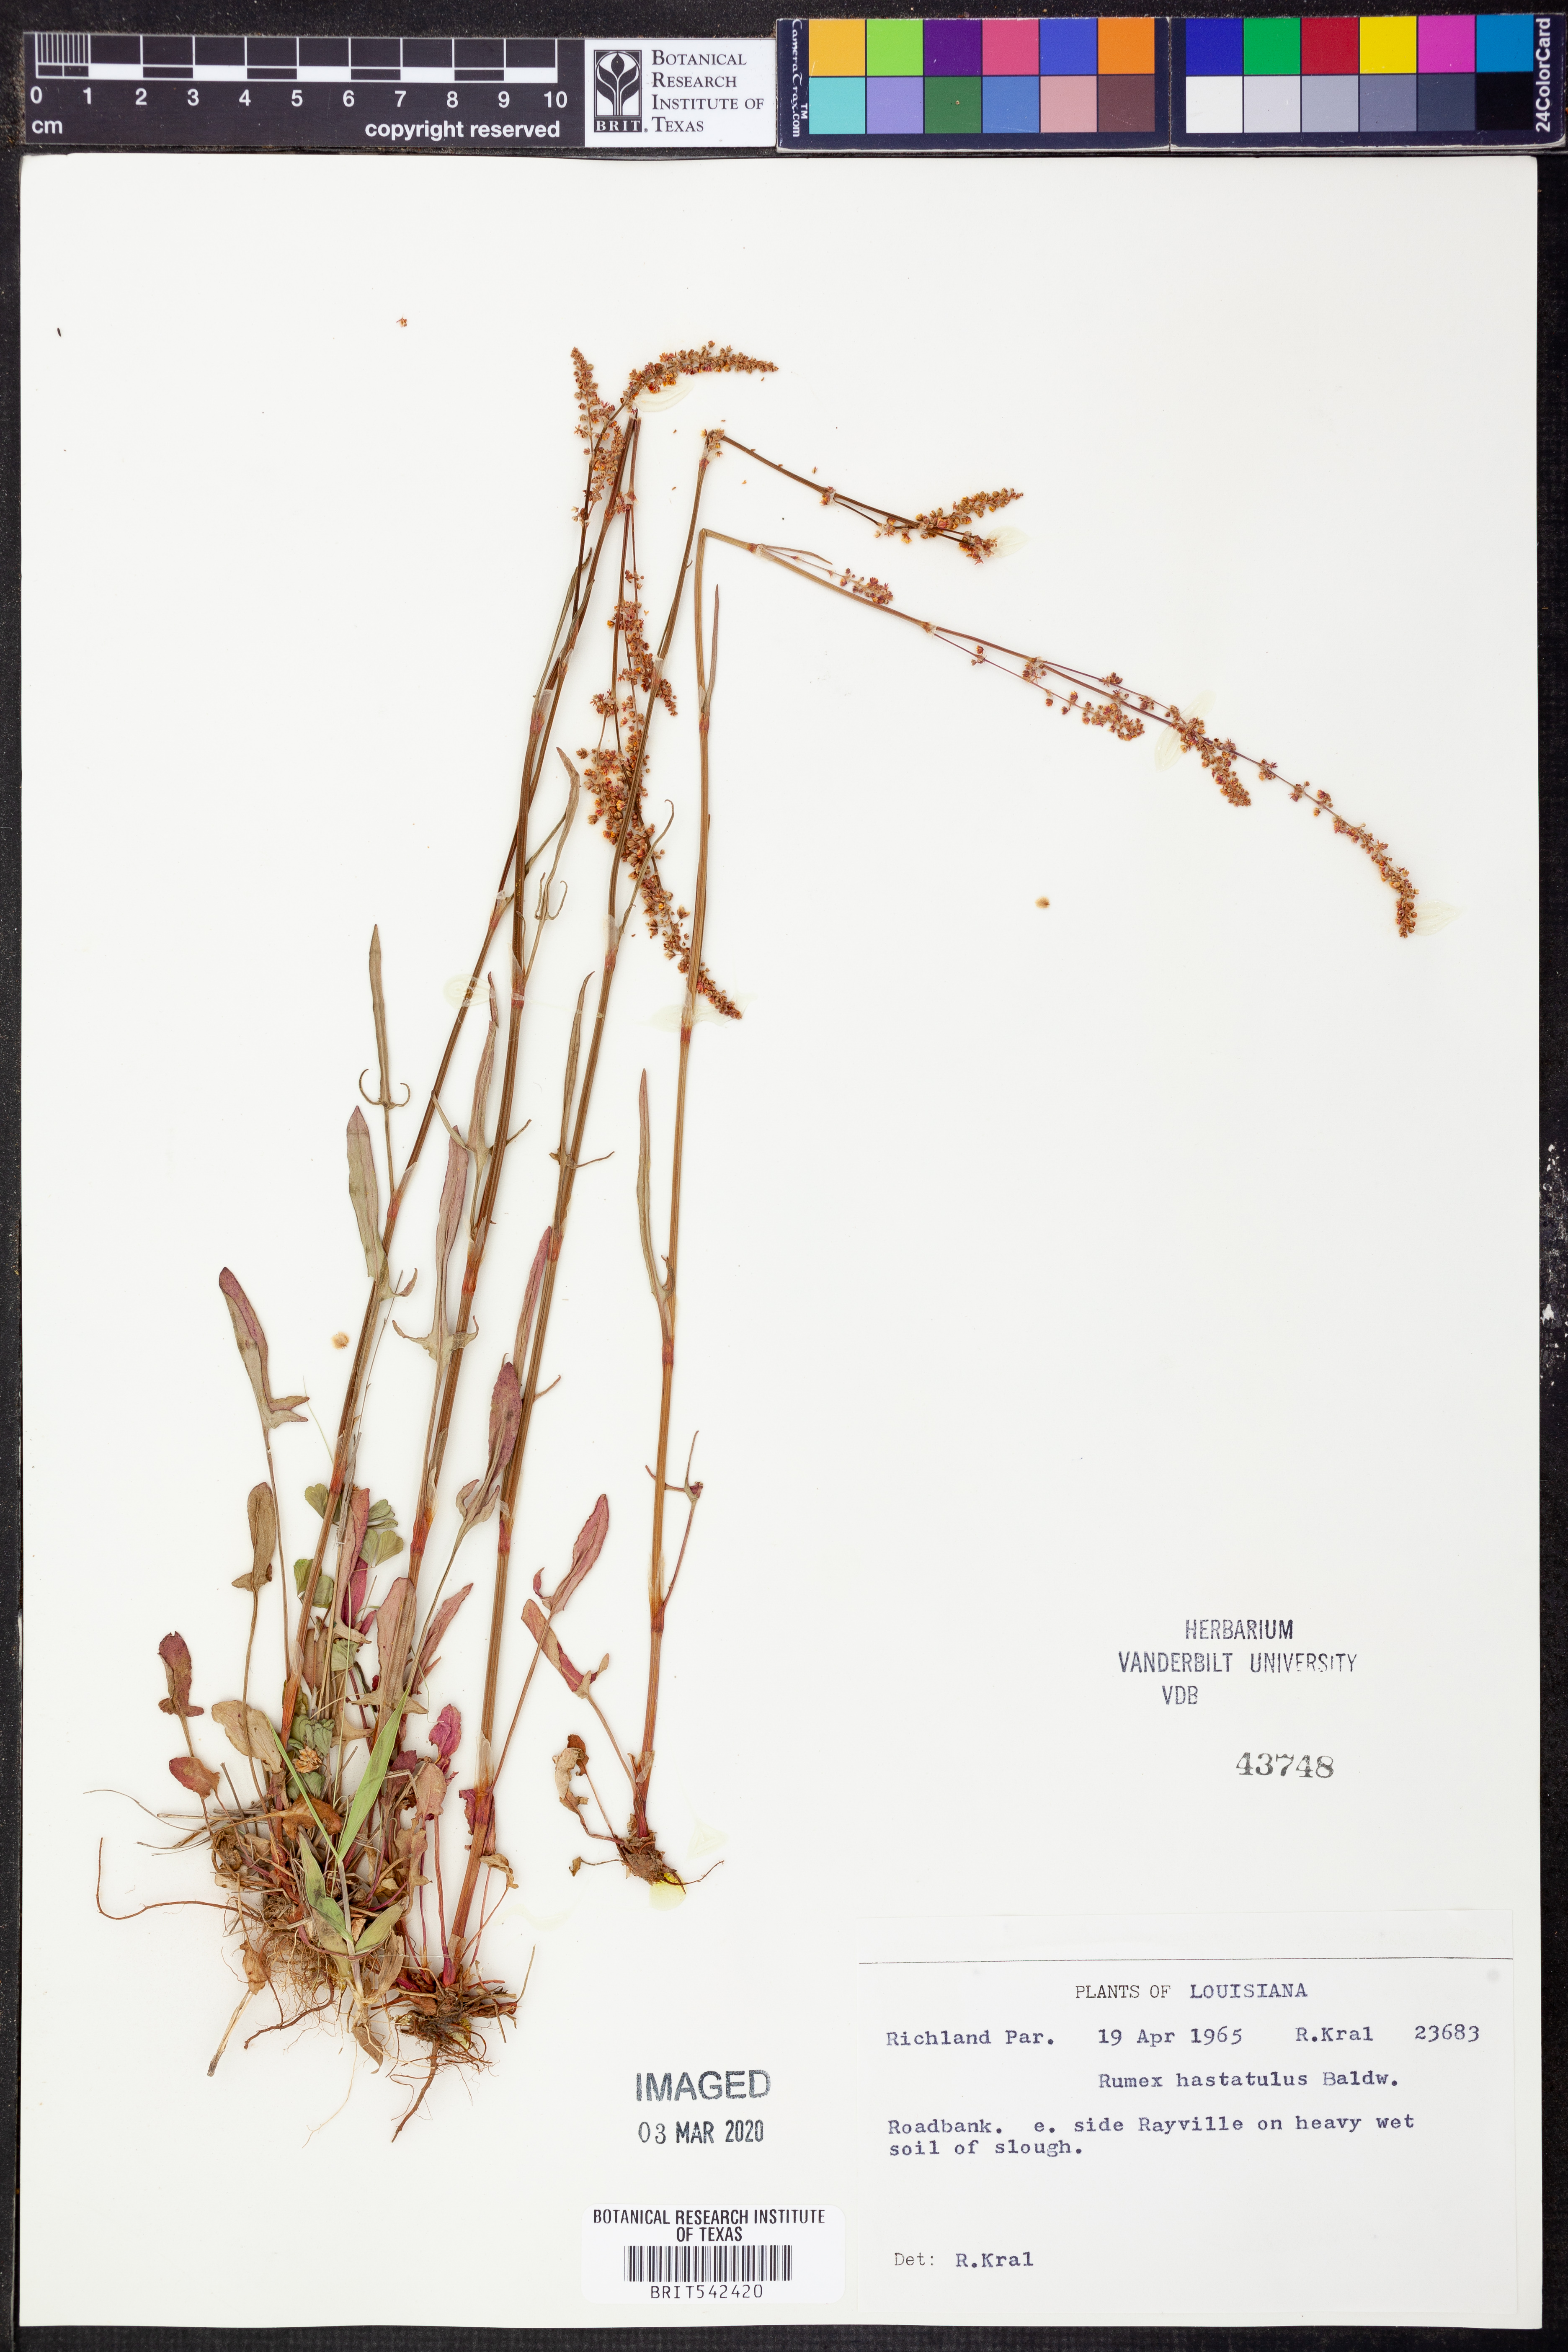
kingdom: Plantae
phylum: Tracheophyta
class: Magnoliopsida
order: Caryophyllales
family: Polygonaceae
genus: Rumex
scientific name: Rumex hastatulus
